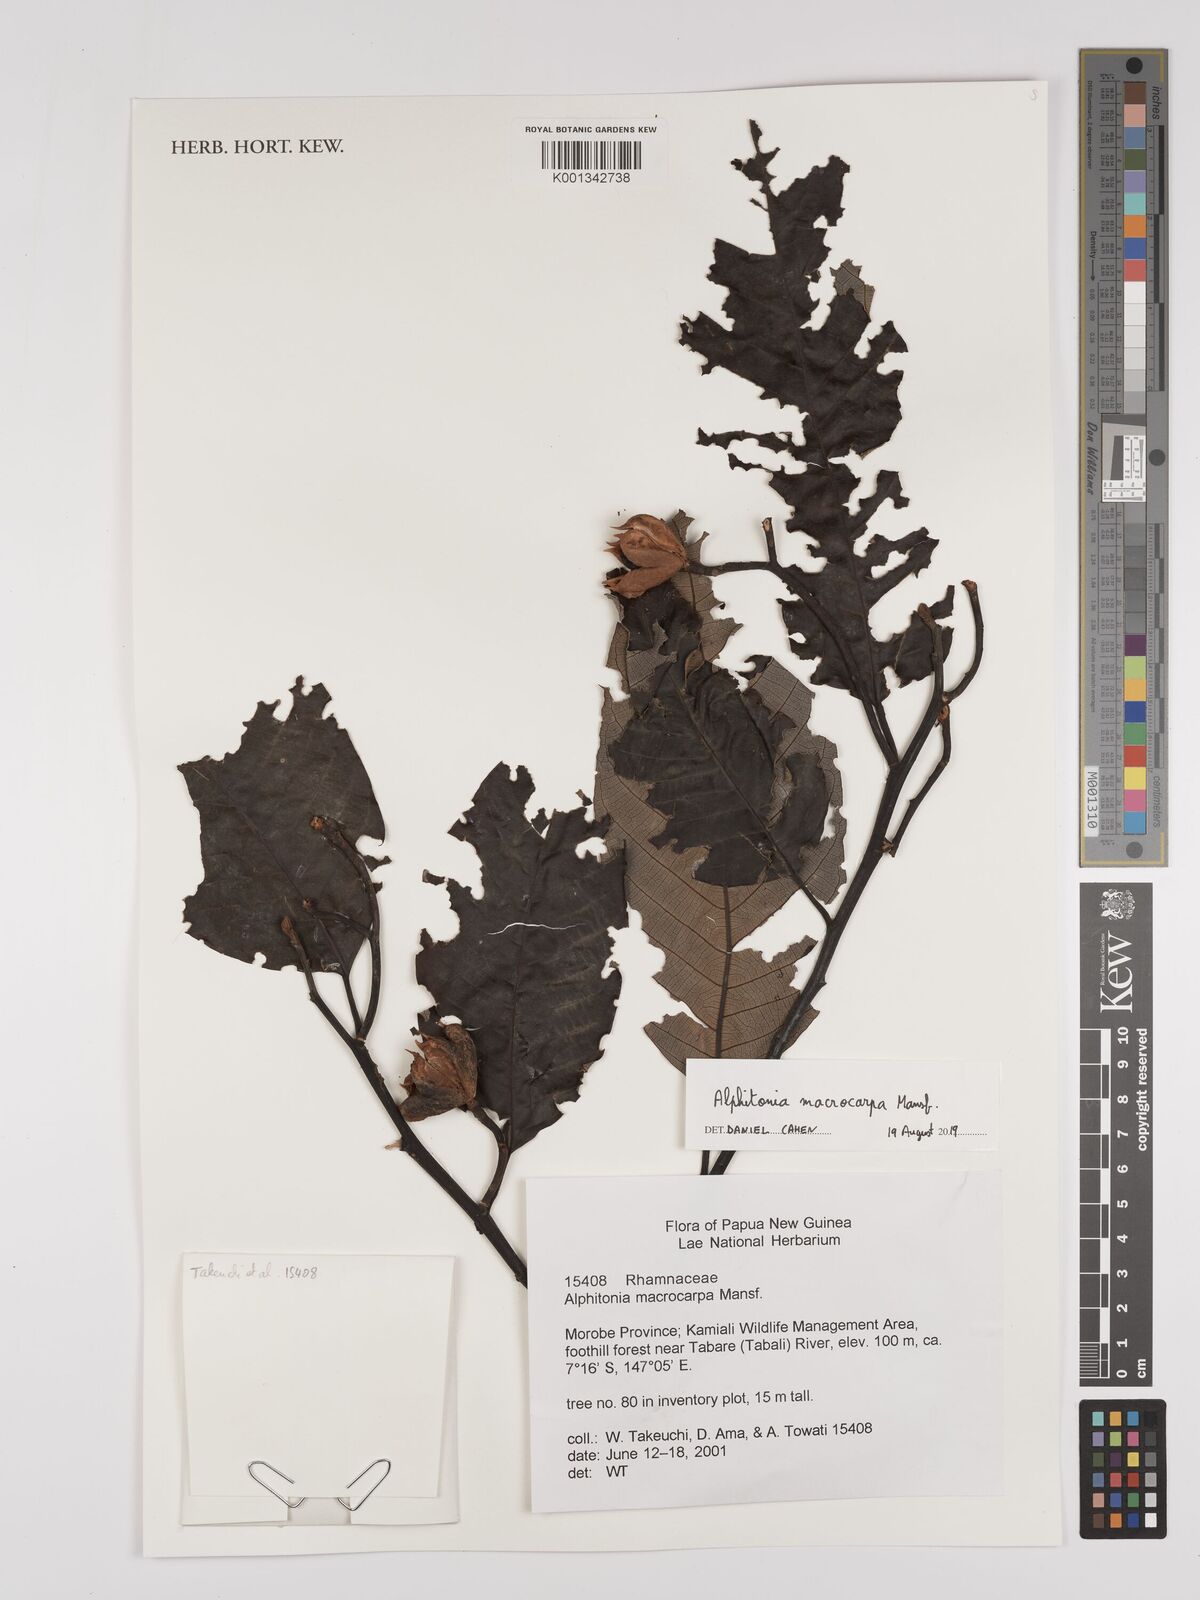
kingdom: Plantae
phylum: Tracheophyta
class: Magnoliopsida
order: Rosales
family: Rhamnaceae
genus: Alphitonia
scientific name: Alphitonia macrocarpa
